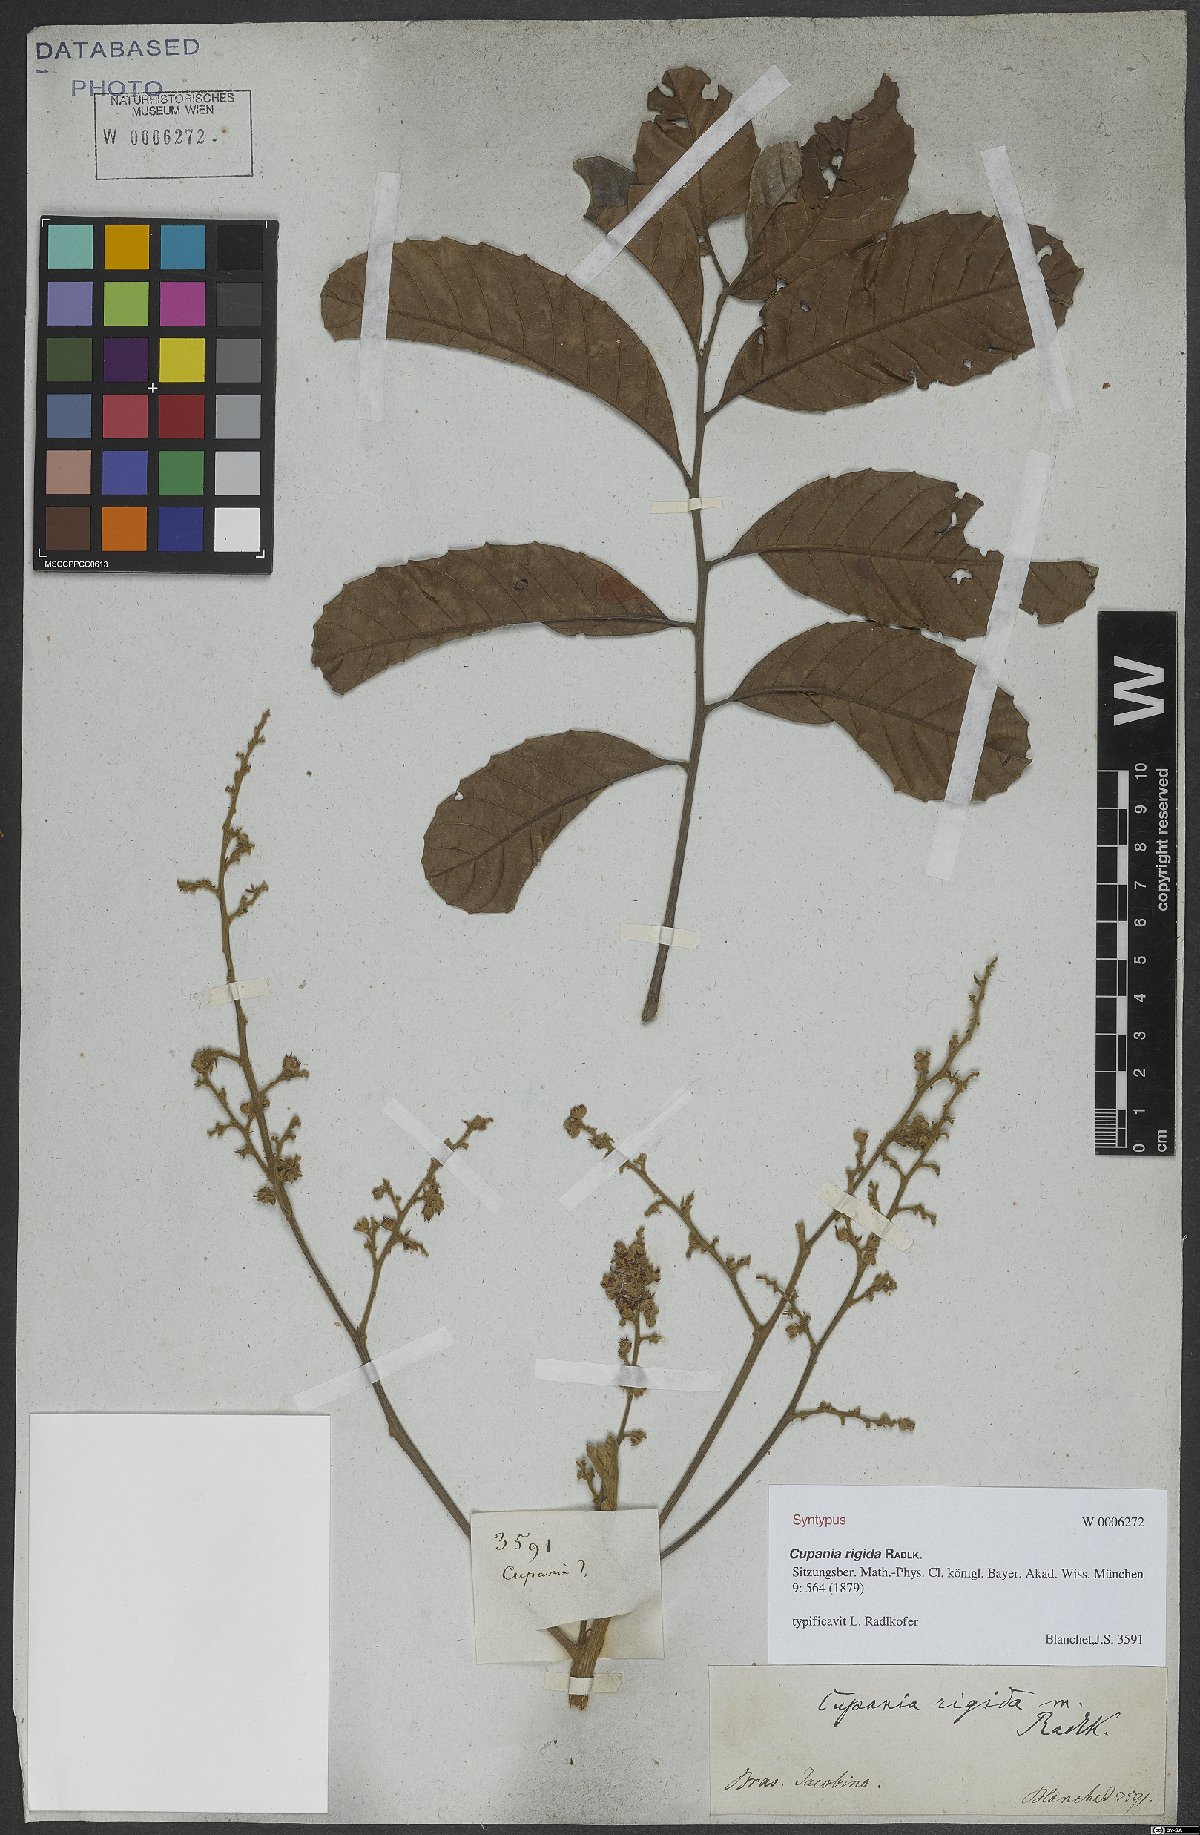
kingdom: Plantae
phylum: Tracheophyta
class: Magnoliopsida
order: Sapindales
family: Sapindaceae
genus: Cupania
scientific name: Cupania rigida
